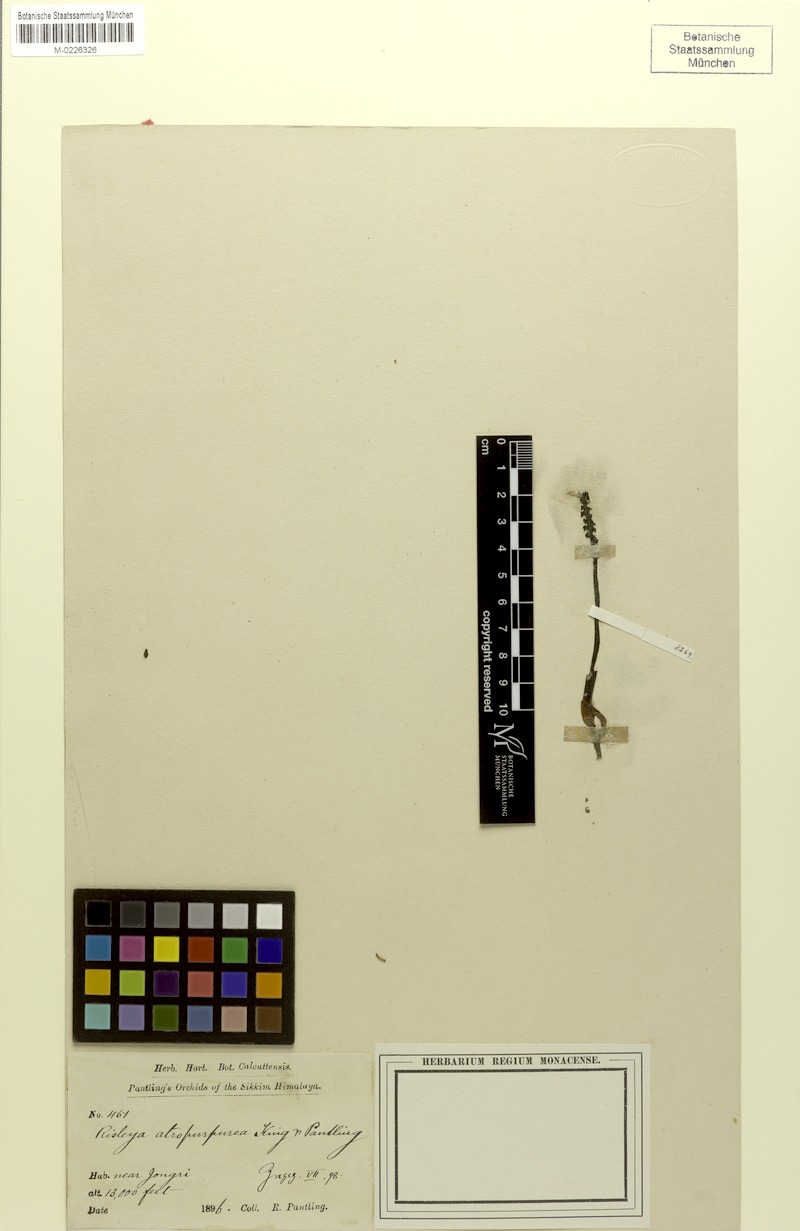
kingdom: Plantae
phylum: Tracheophyta
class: Liliopsida
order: Asparagales
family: Orchidaceae
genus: Risleya
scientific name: Risleya atropurpurea
